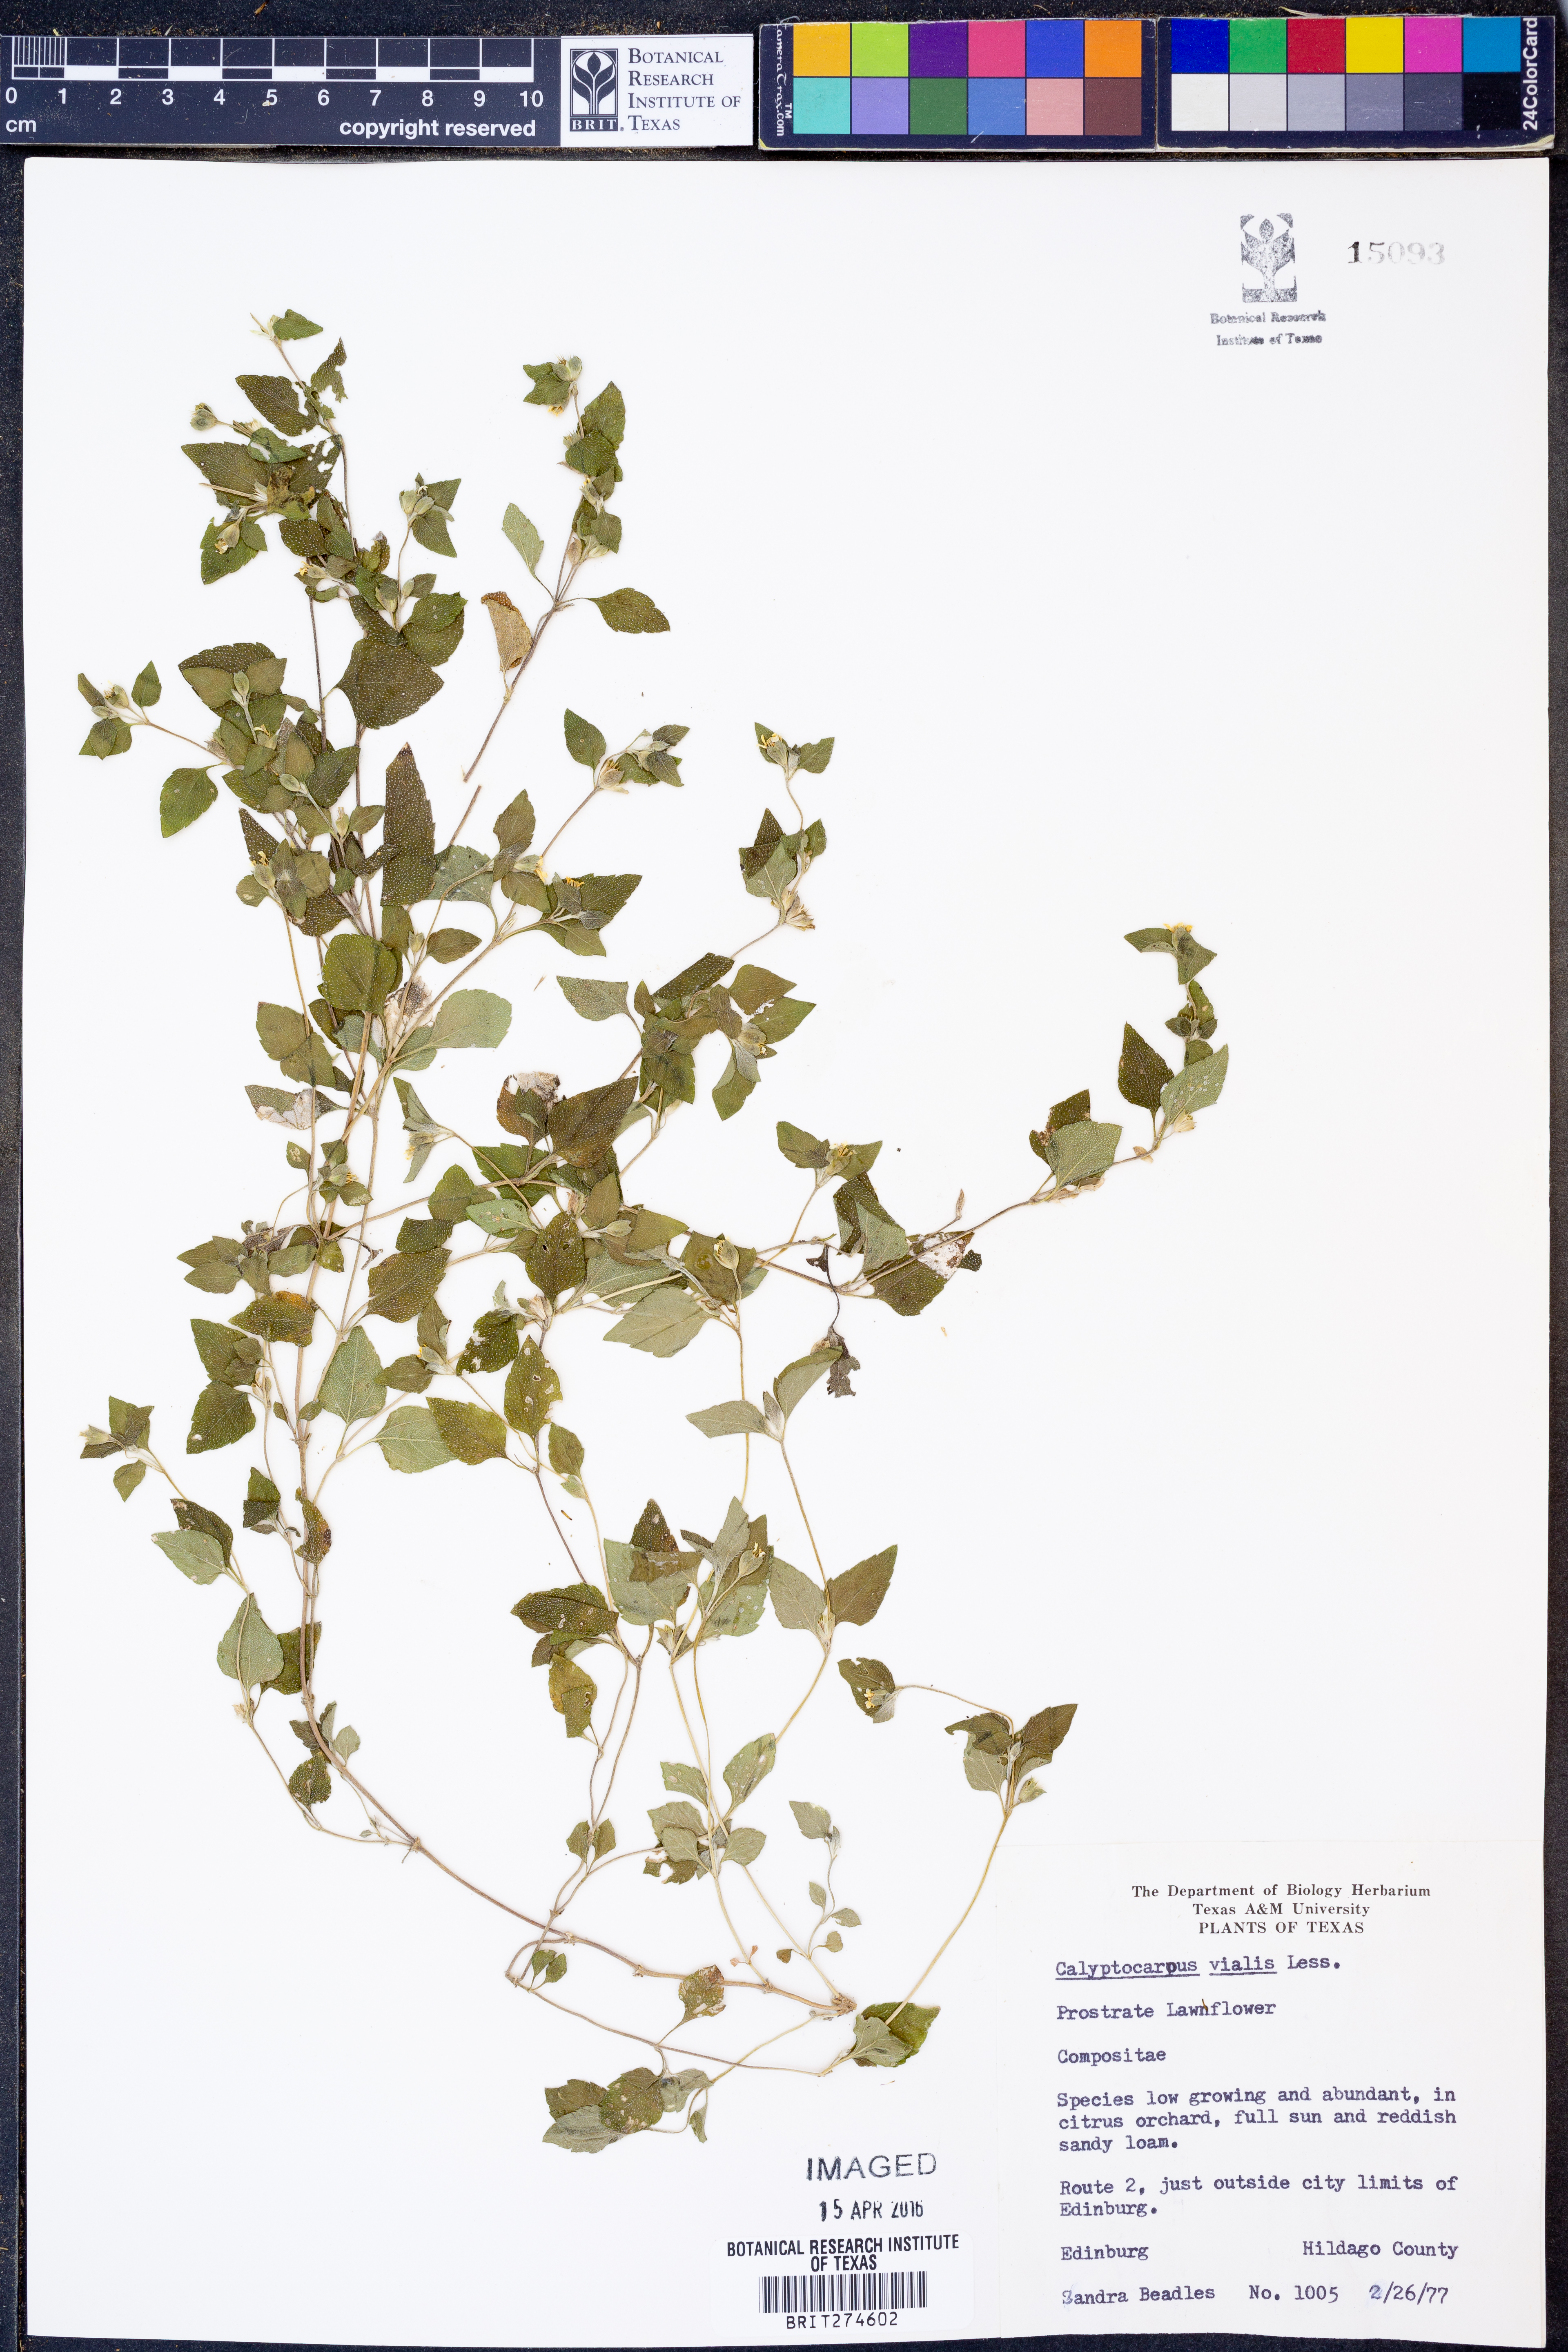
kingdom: Plantae
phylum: Tracheophyta
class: Magnoliopsida
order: Asterales
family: Asteraceae
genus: Calyptocarpus
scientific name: Calyptocarpus vialis
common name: Straggler daisy
